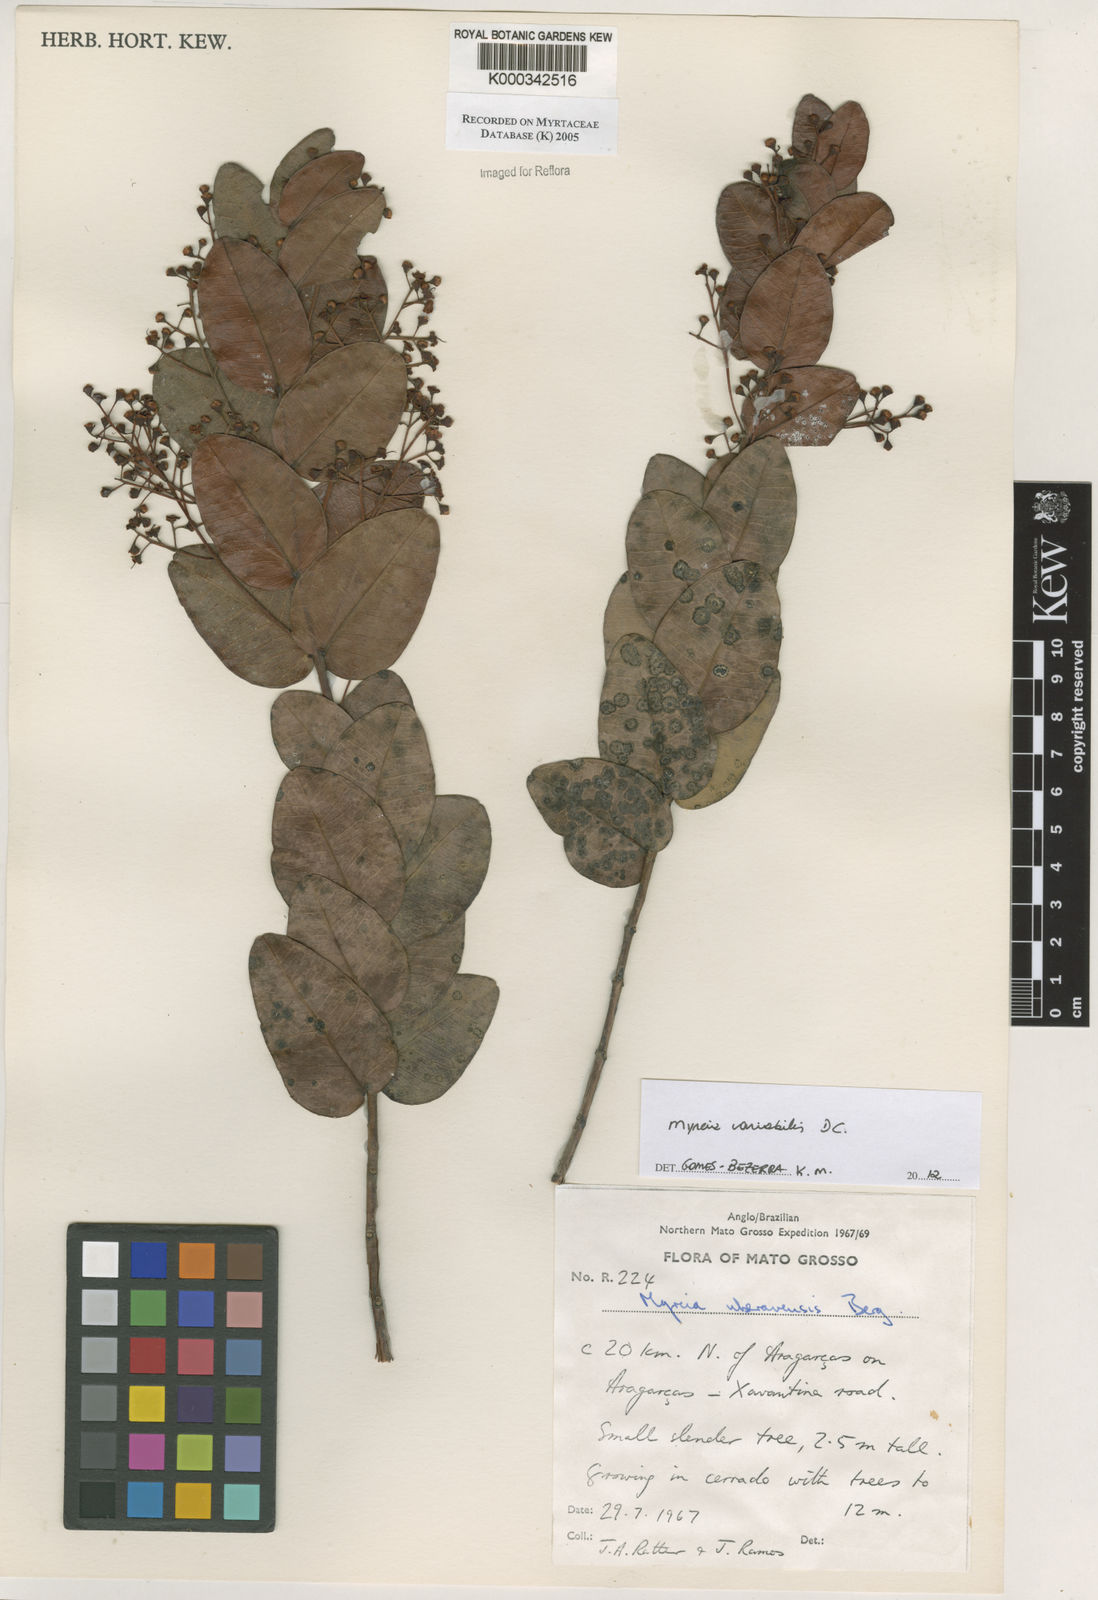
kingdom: Plantae
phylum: Tracheophyta
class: Magnoliopsida
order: Myrtales
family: Myrtaceae
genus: Myrcia
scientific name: Myrcia uberavensis
